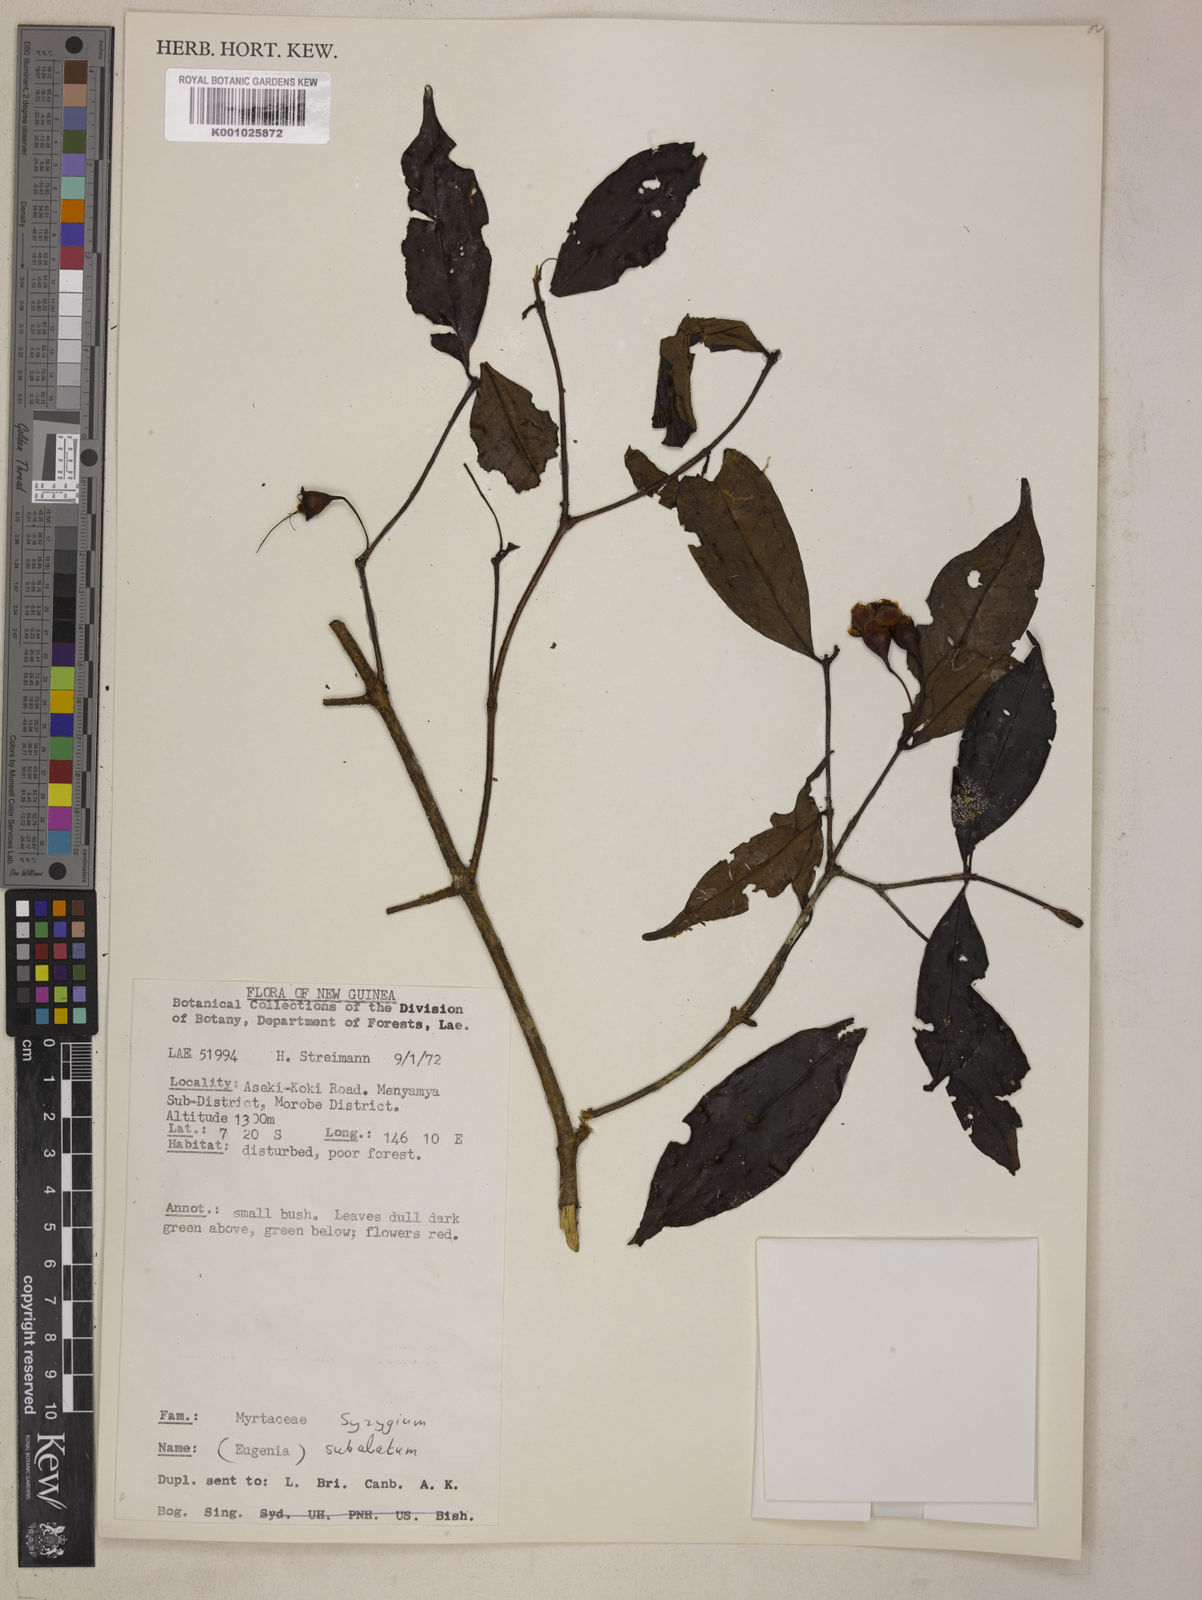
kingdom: Plantae
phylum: Tracheophyta
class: Magnoliopsida
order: Myrtales
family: Myrtaceae
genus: Syzygium
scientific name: Syzygium subalatum
